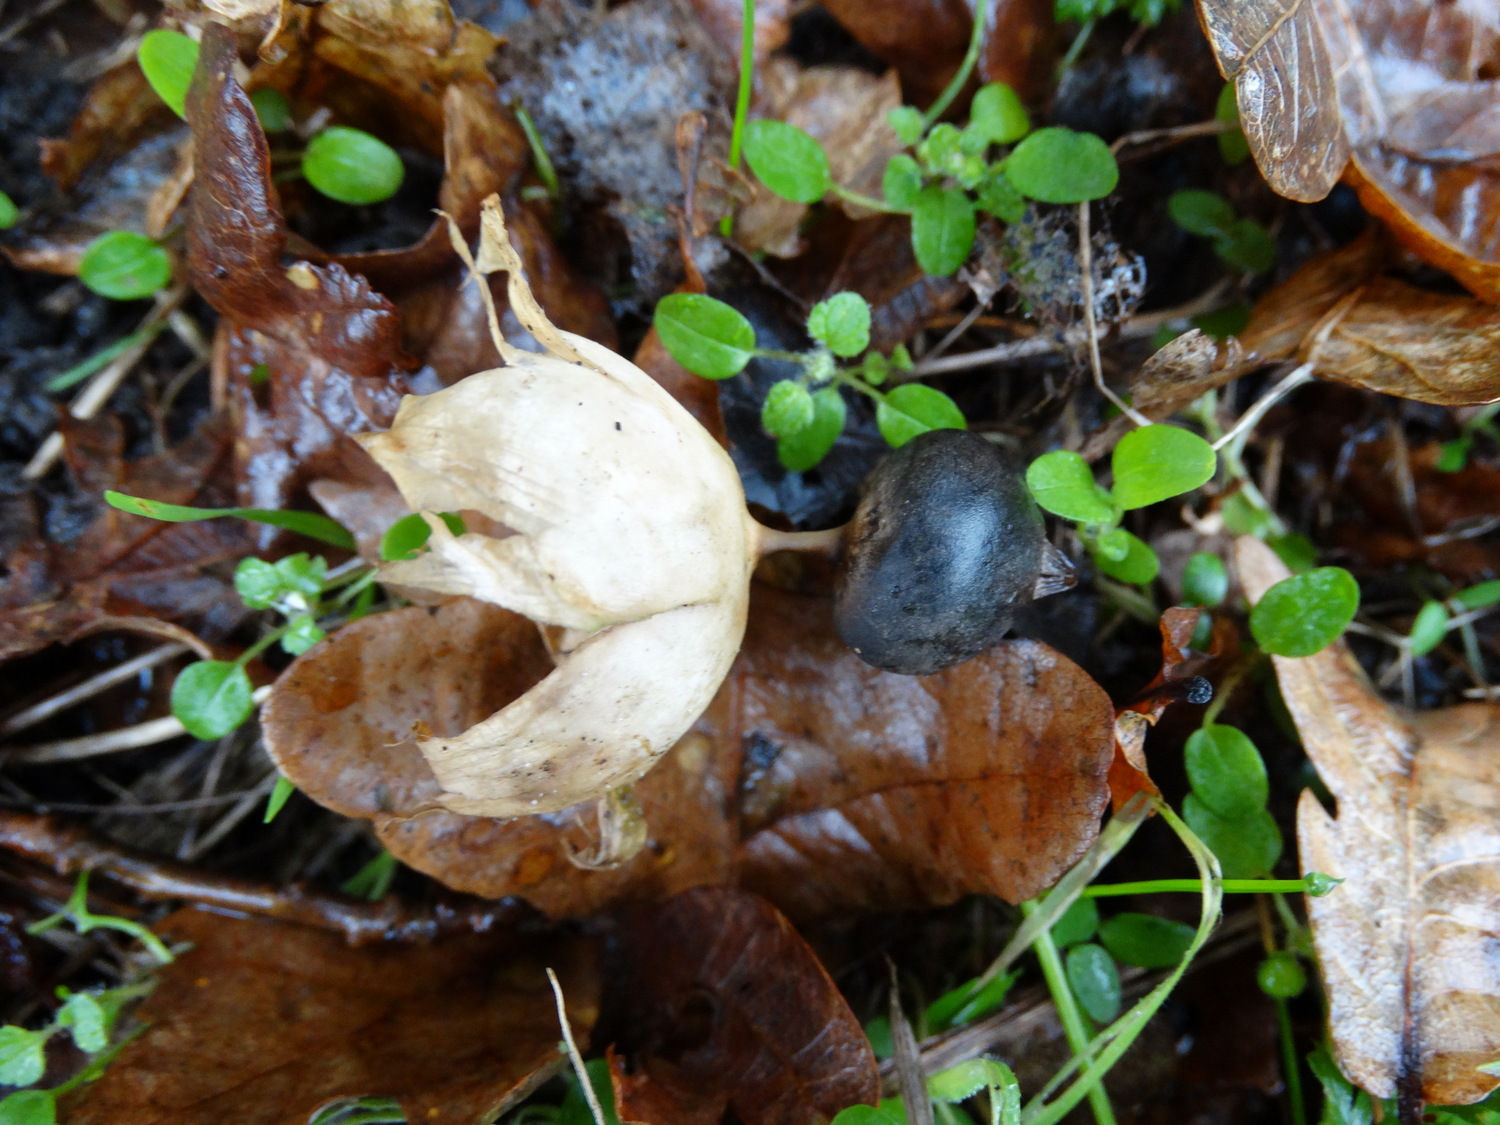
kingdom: Fungi
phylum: Basidiomycota
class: Agaricomycetes
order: Geastrales
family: Geastraceae
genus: Geastrum
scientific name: Geastrum pectinatum
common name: stilket stjernebold
